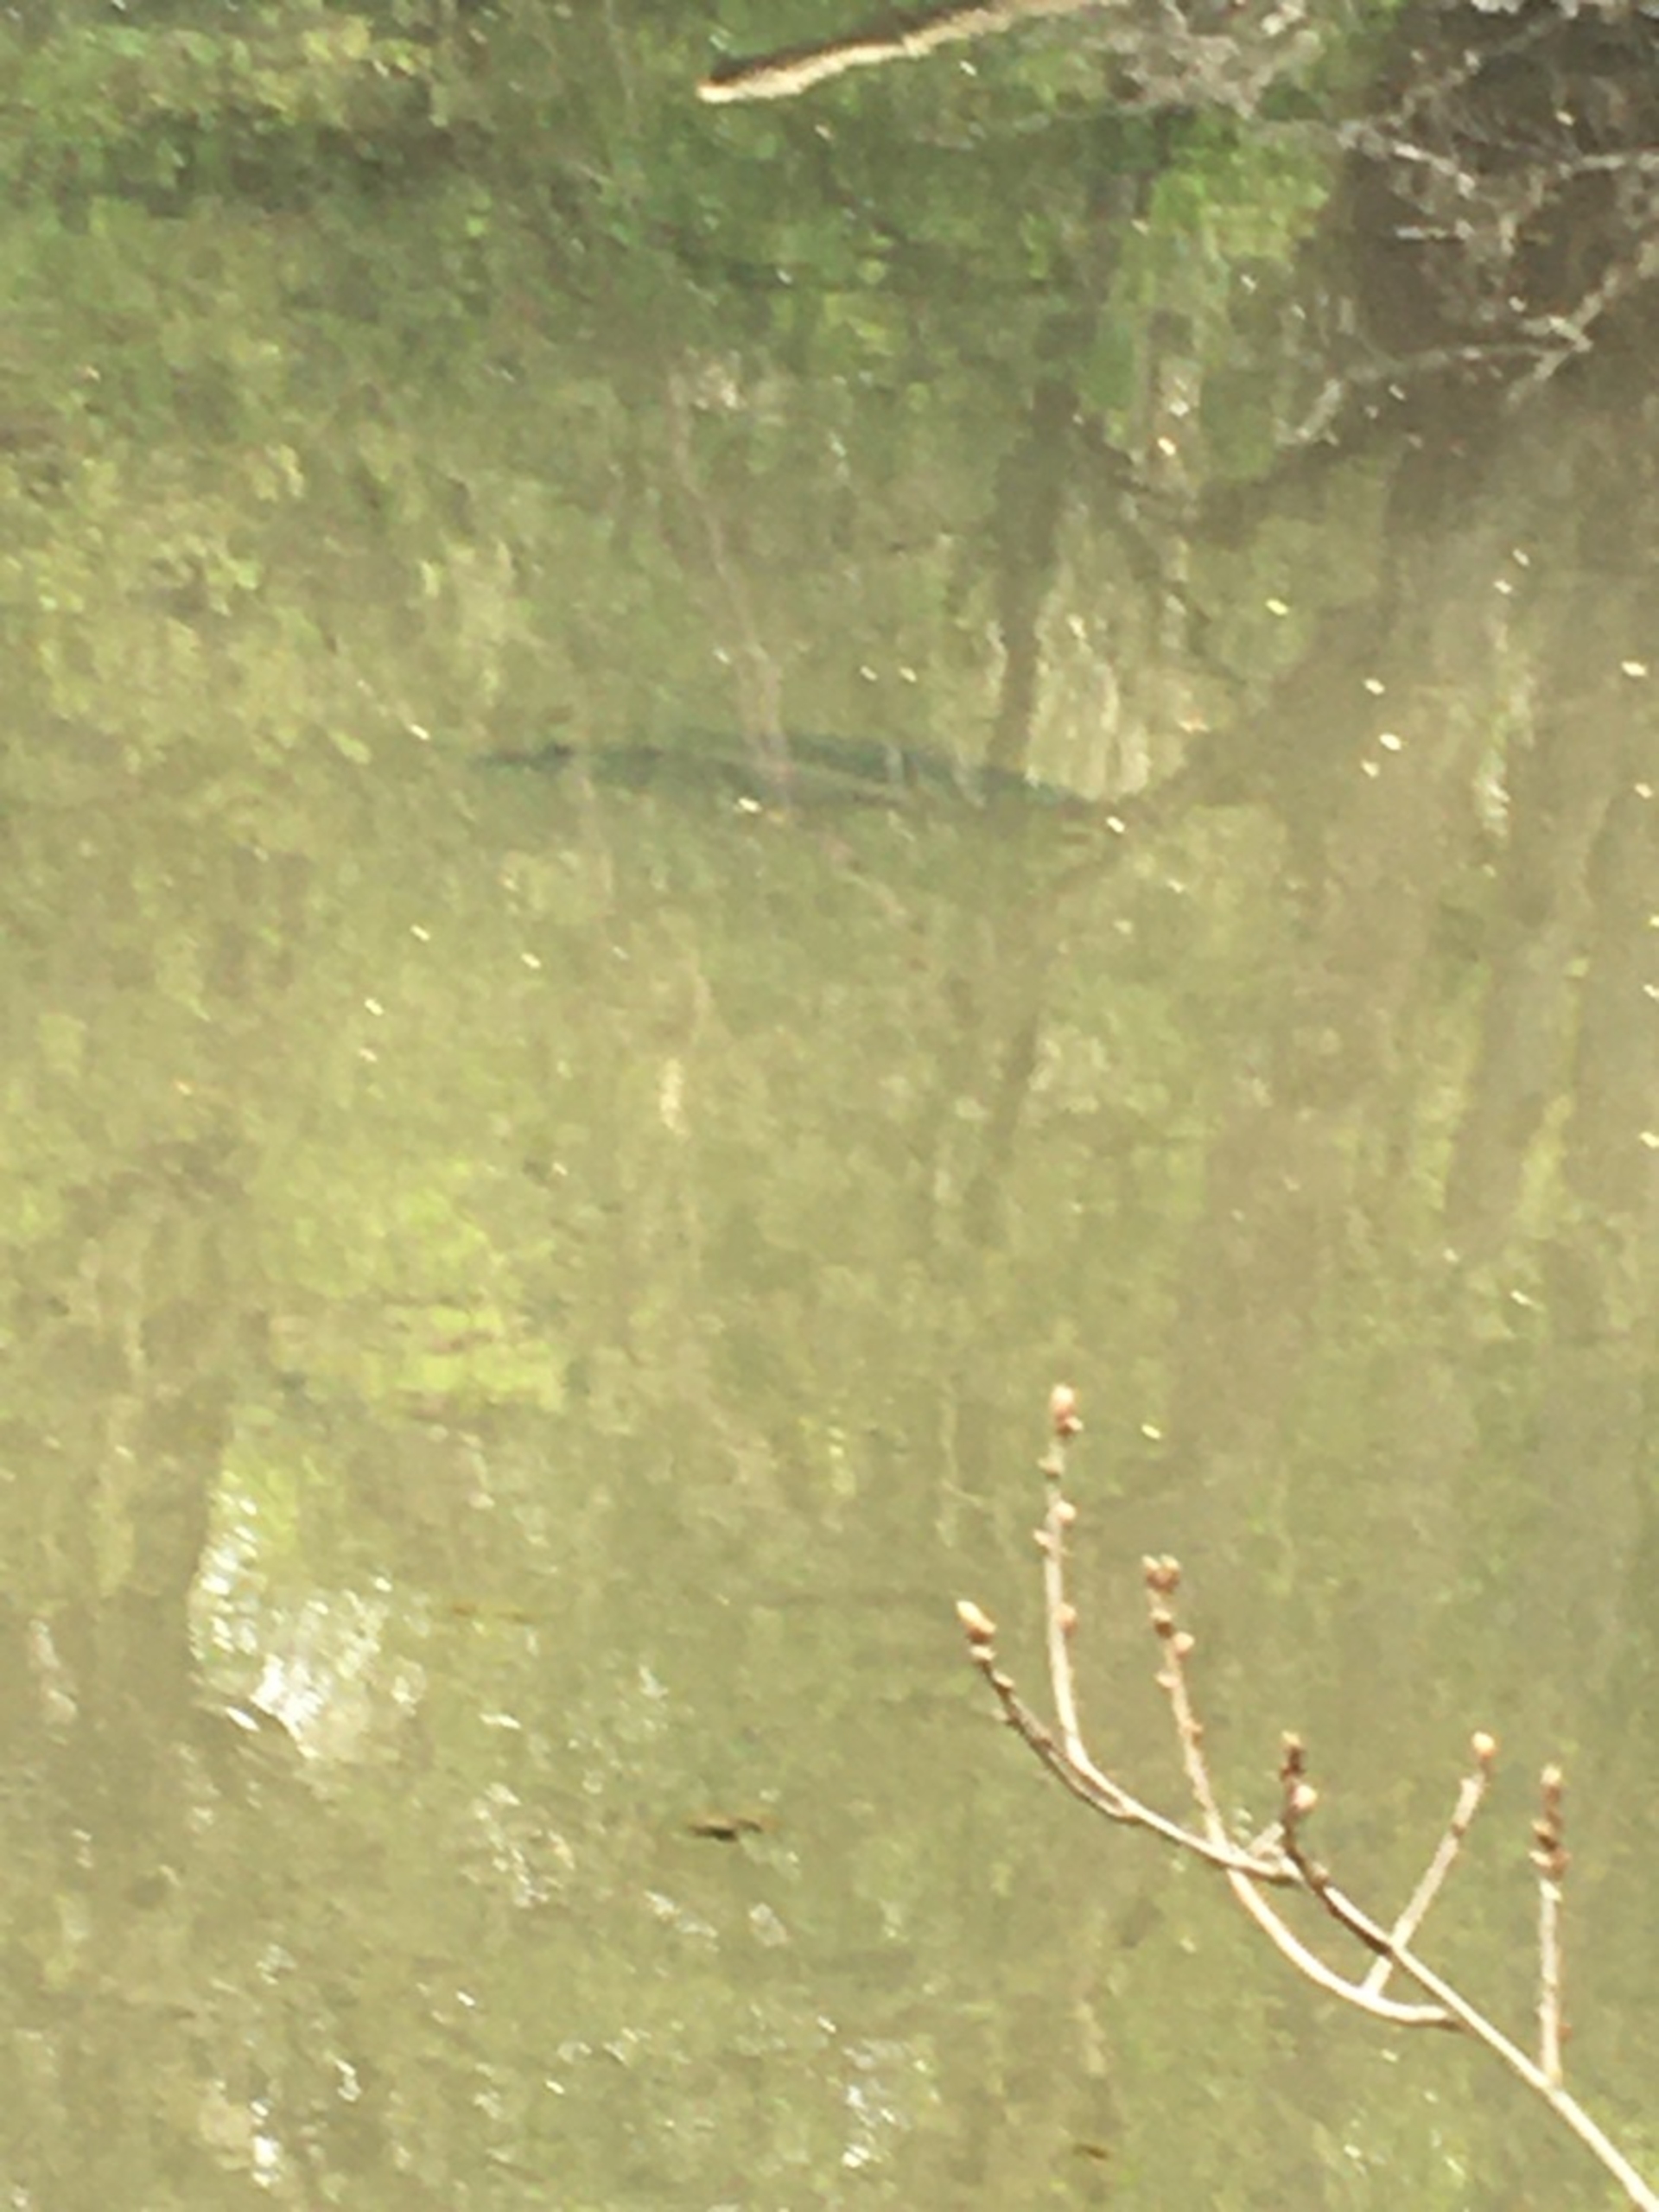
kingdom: Animalia
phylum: Chordata
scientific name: Chordata
